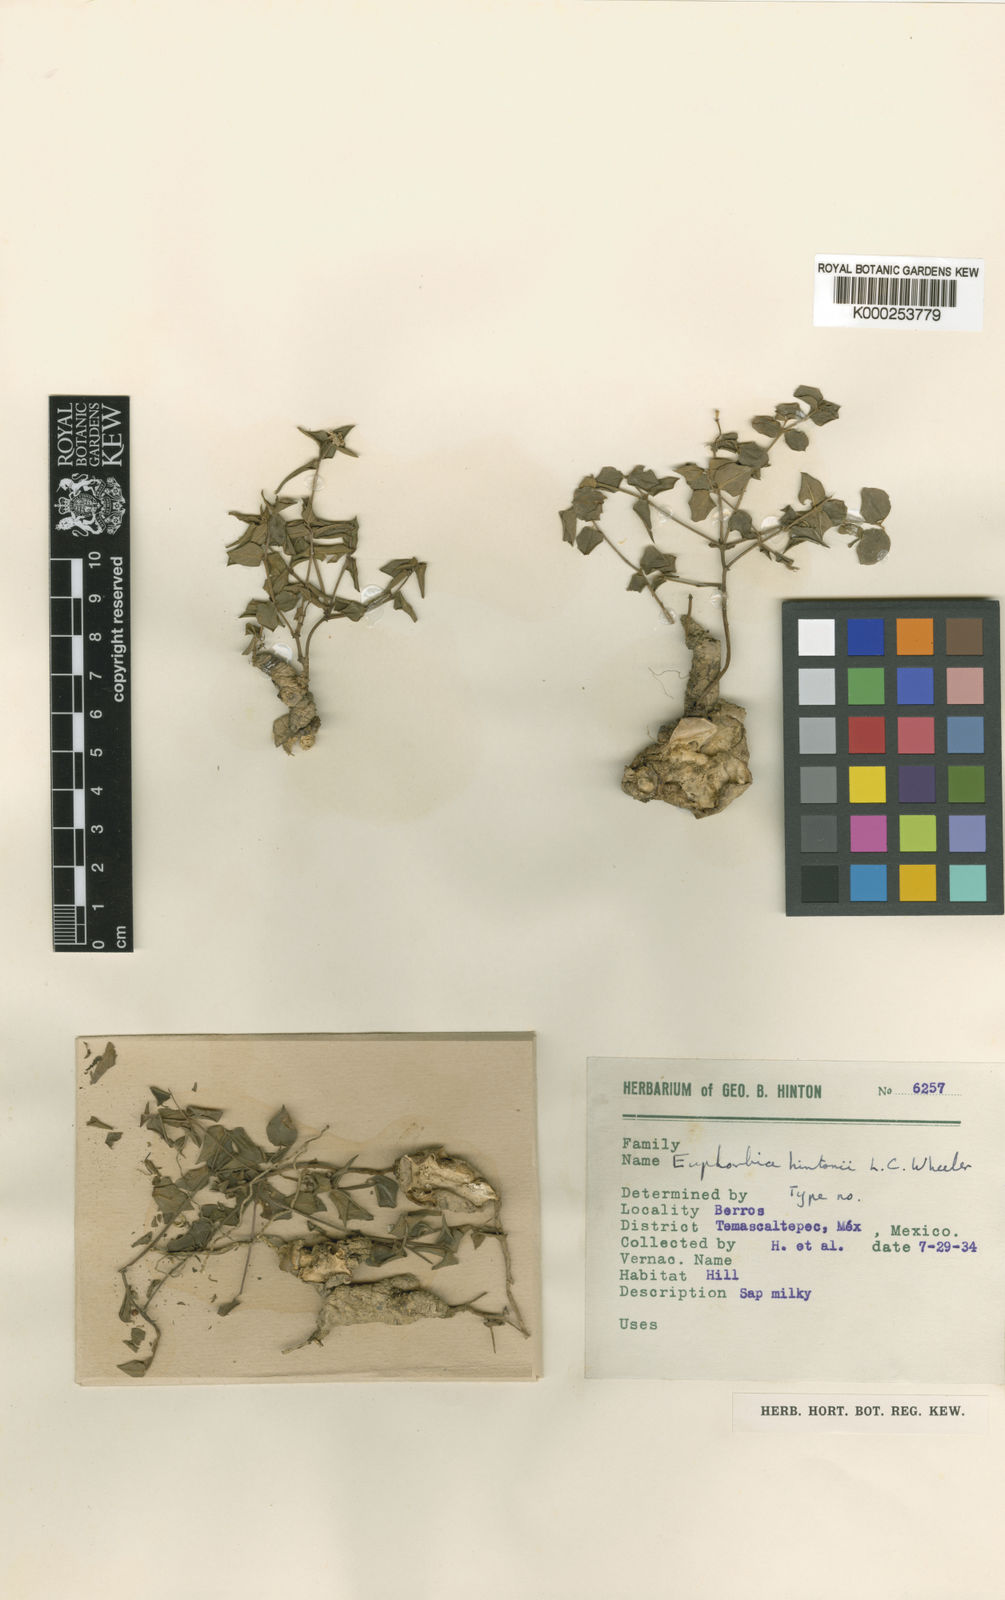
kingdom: Plantae
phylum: Tracheophyta
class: Magnoliopsida
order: Malpighiales
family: Euphorbiaceae
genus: Euphorbia
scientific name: Euphorbia hintonii
